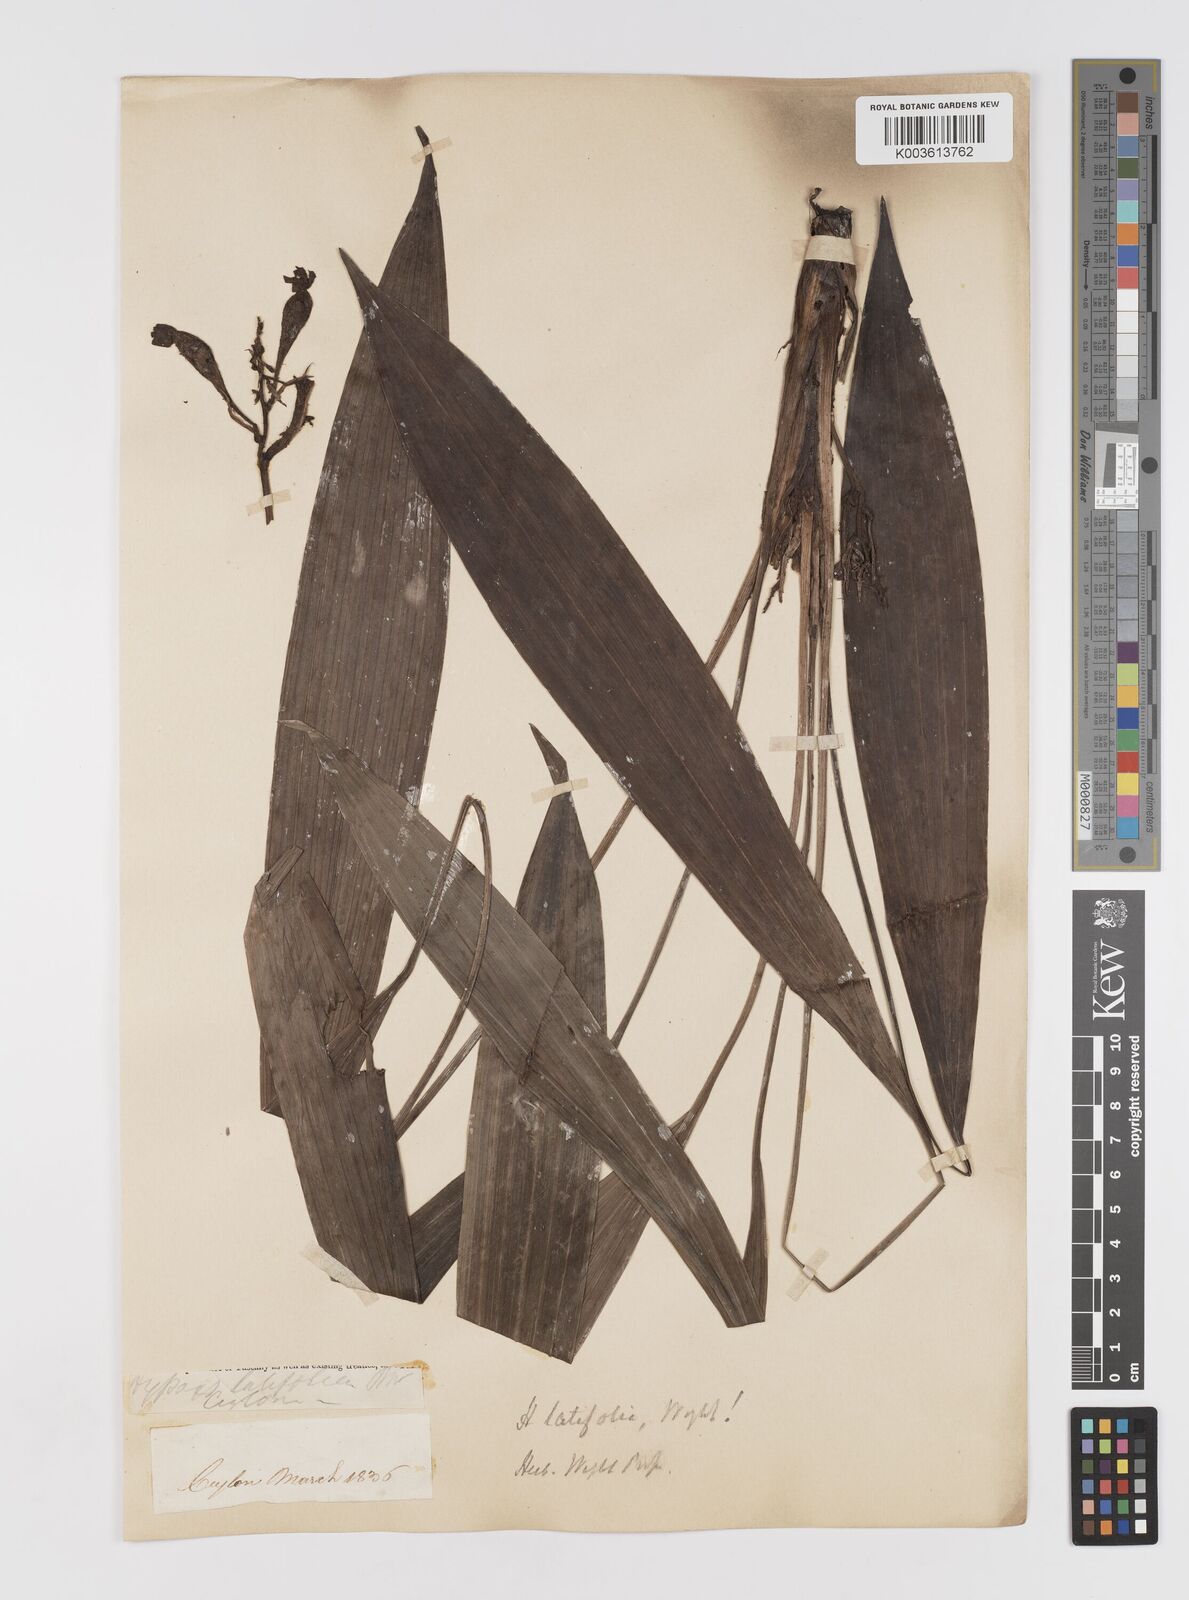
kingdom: Plantae
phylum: Tracheophyta
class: Liliopsida
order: Asparagales
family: Hypoxidaceae
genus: Curculigo
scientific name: Curculigo latifolia
